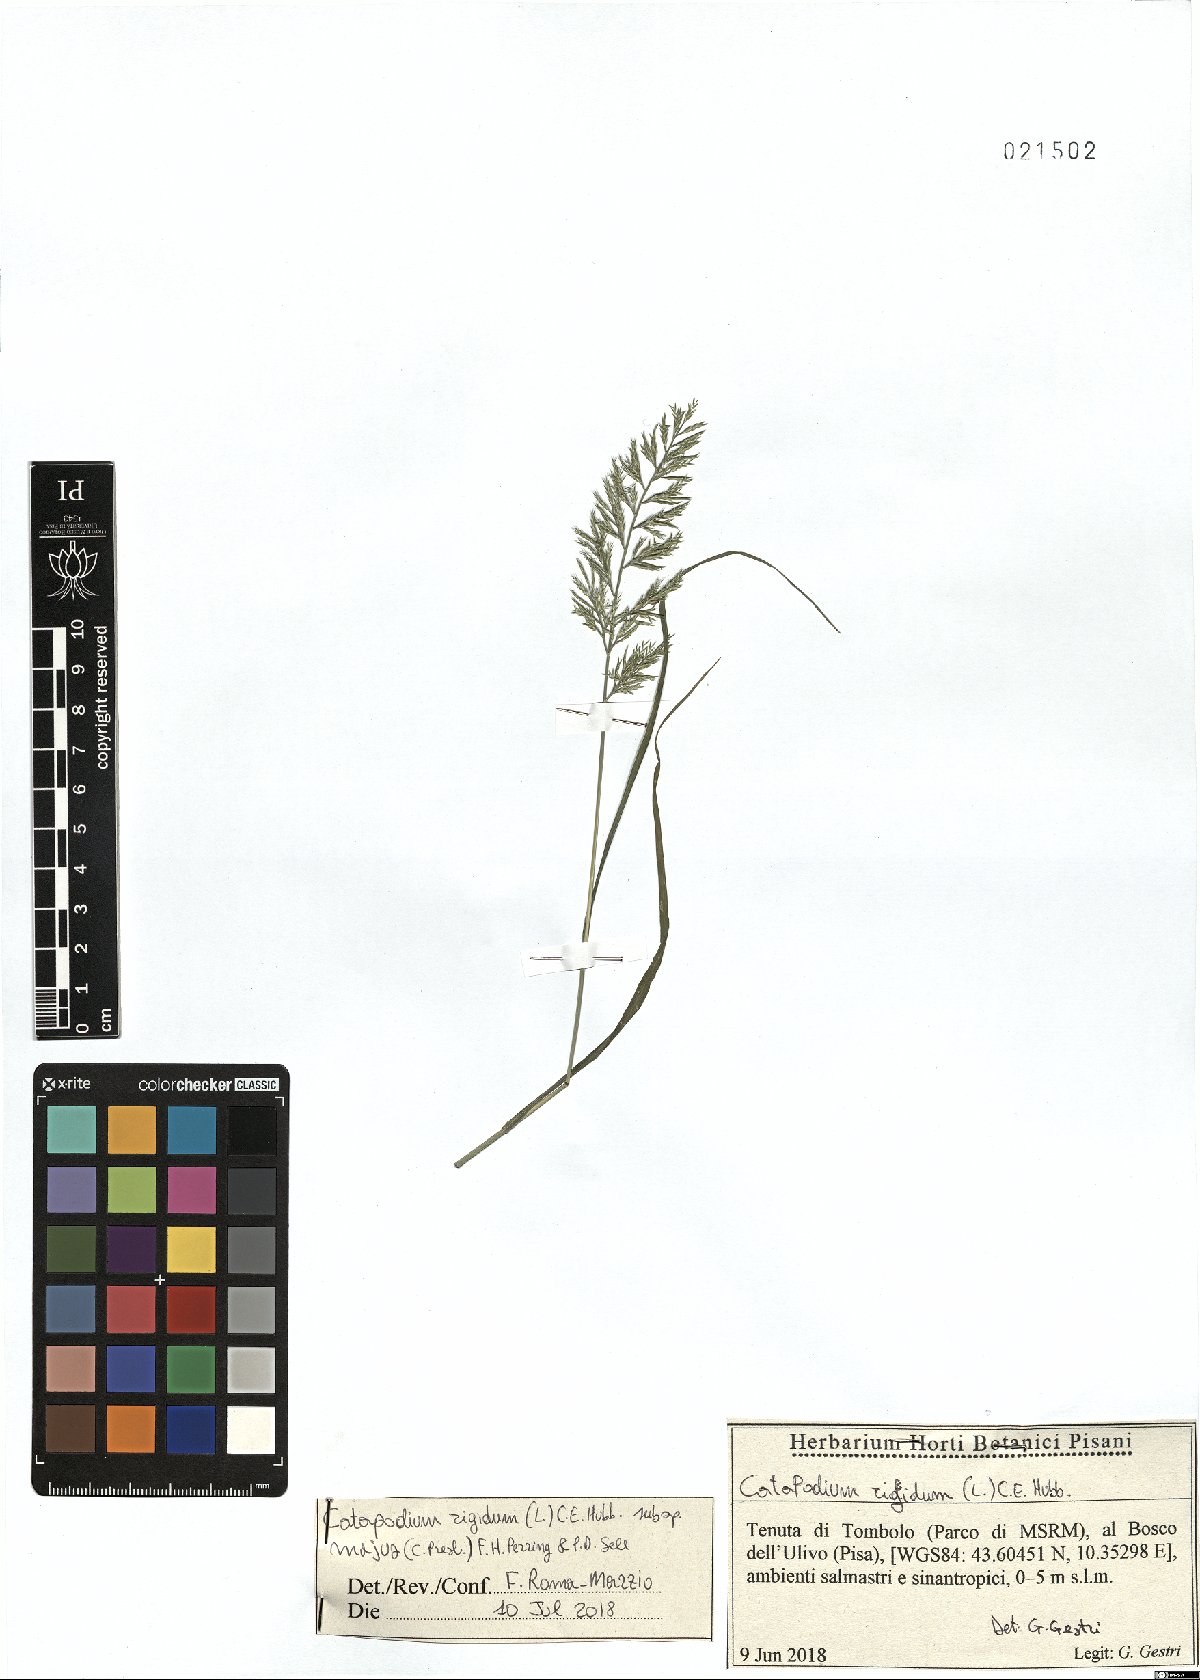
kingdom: Plantae
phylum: Tracheophyta
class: Liliopsida
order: Poales
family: Poaceae
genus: Catapodium
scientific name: Catapodium rigidum
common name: Fern-grass
